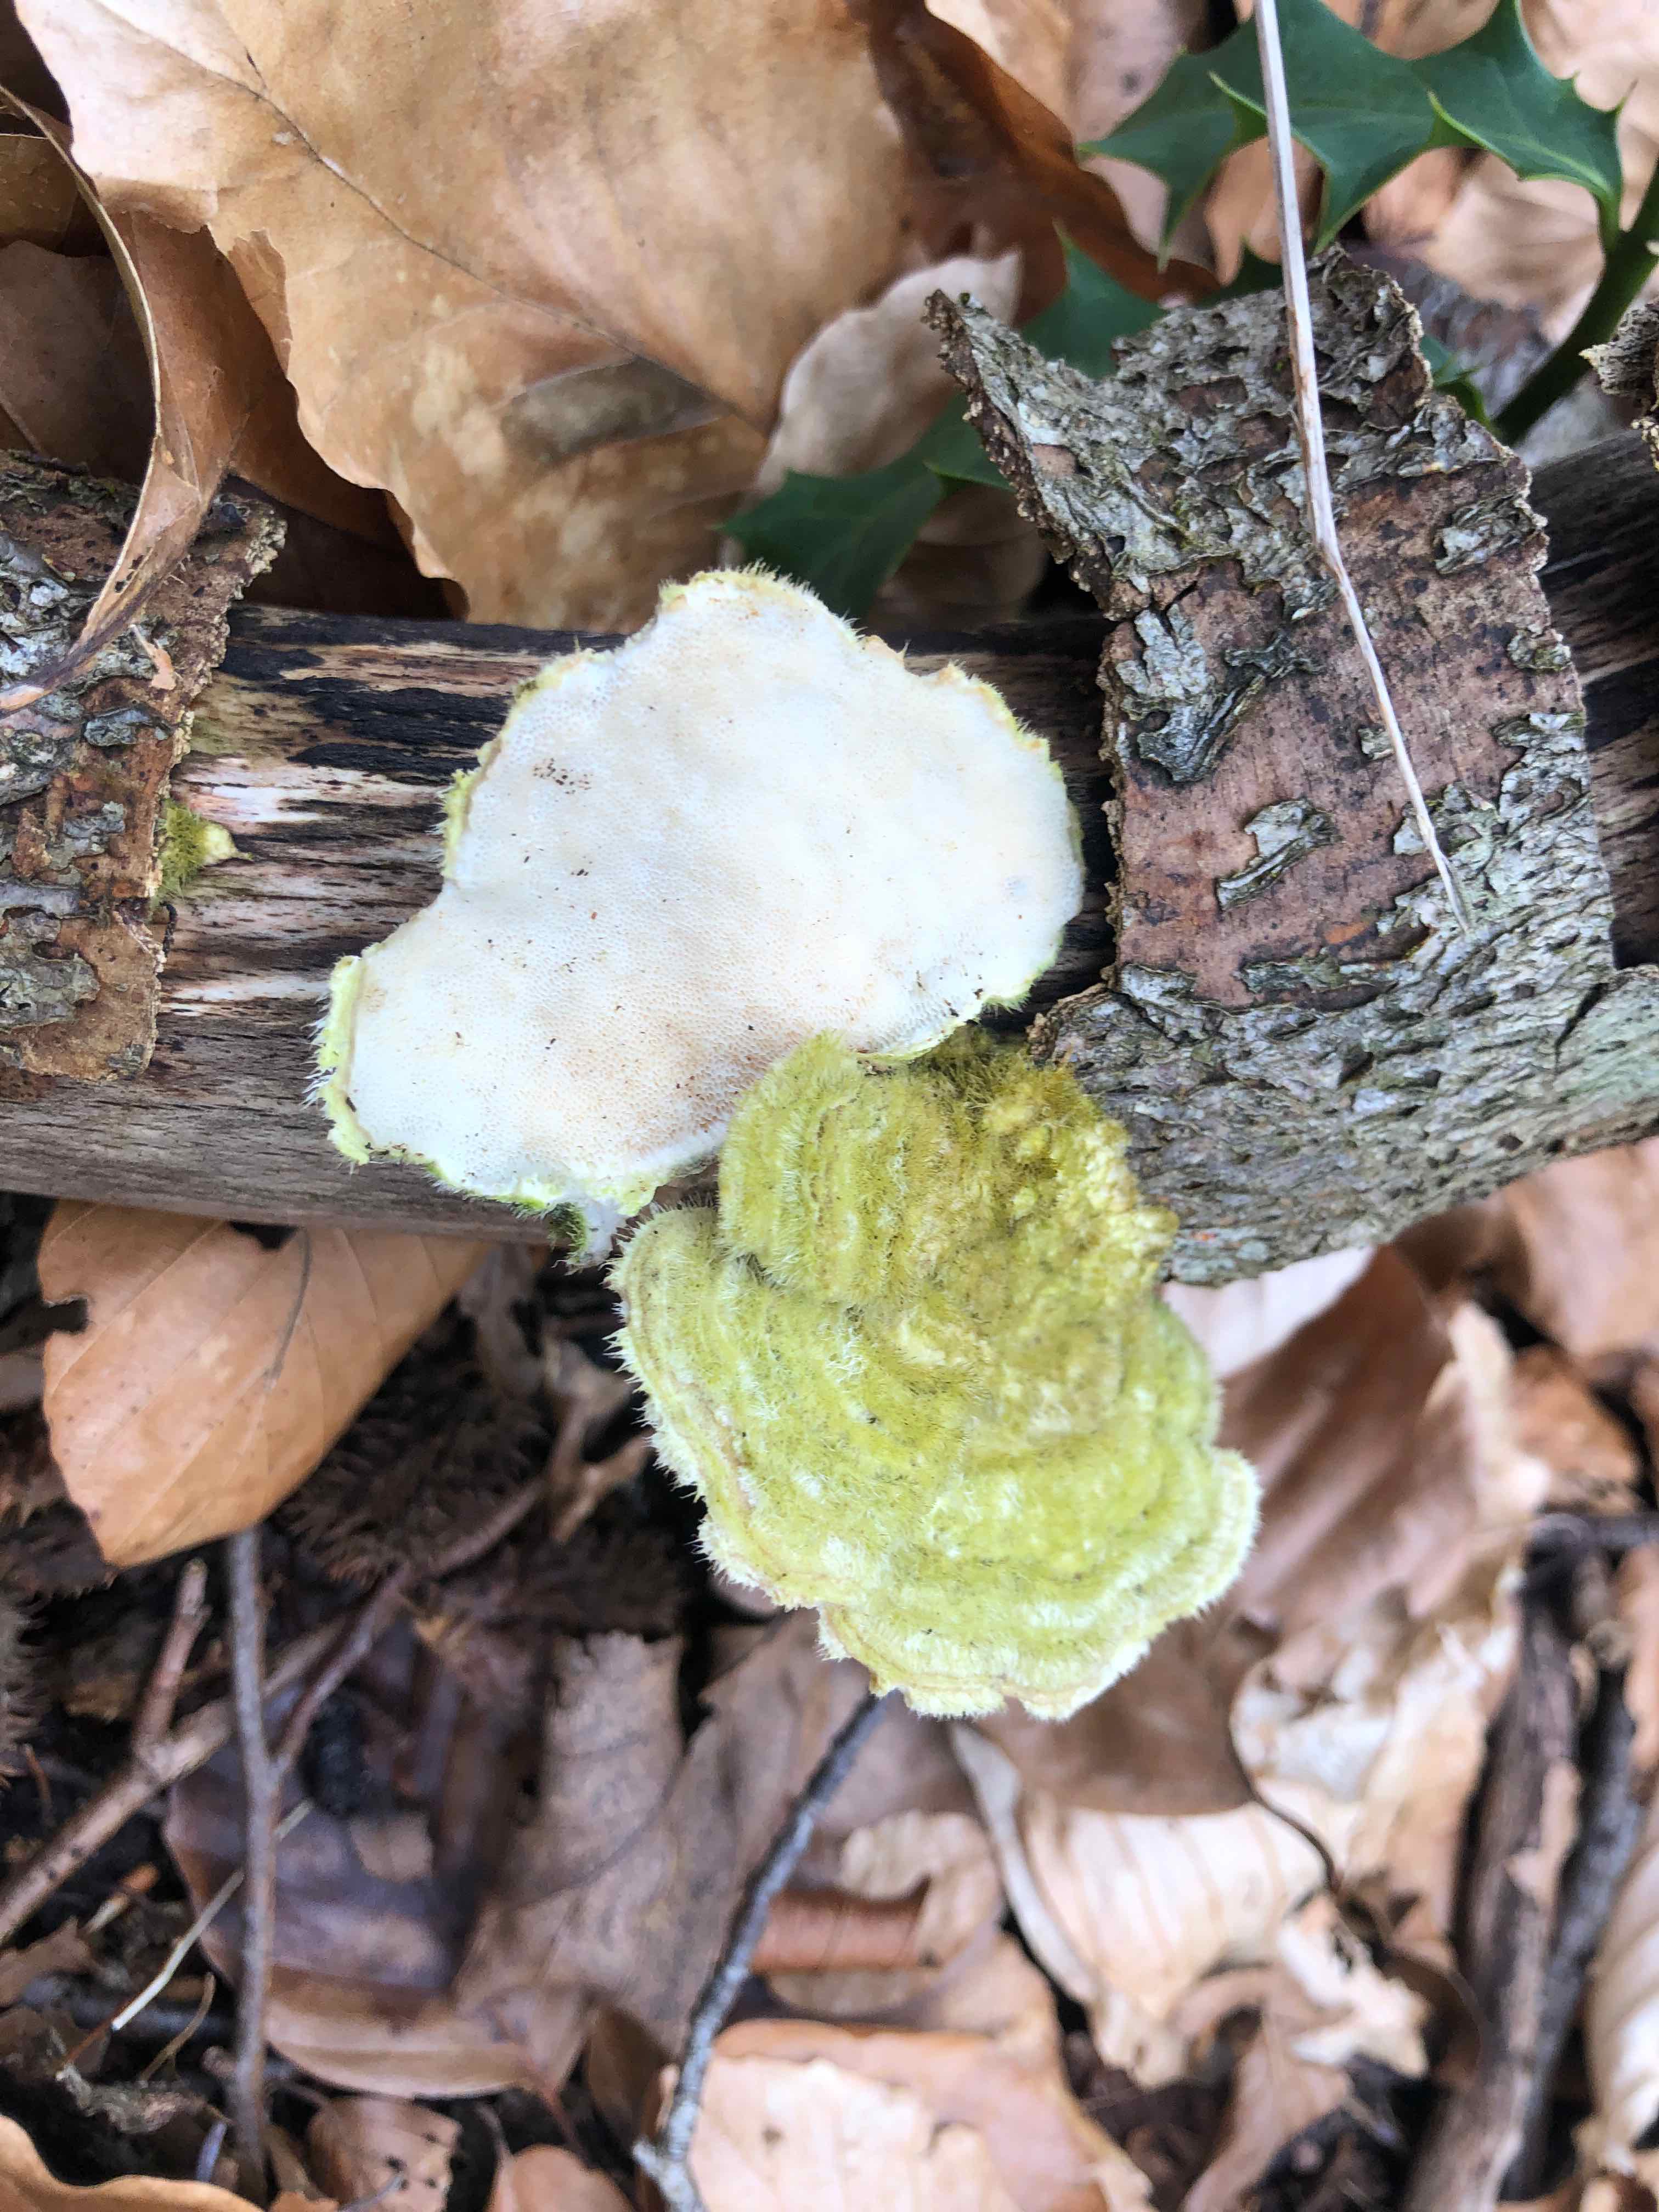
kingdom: Fungi
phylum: Basidiomycota
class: Agaricomycetes
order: Polyporales
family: Polyporaceae
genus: Trametes
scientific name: Trametes hirsuta
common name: håret læderporesvamp
